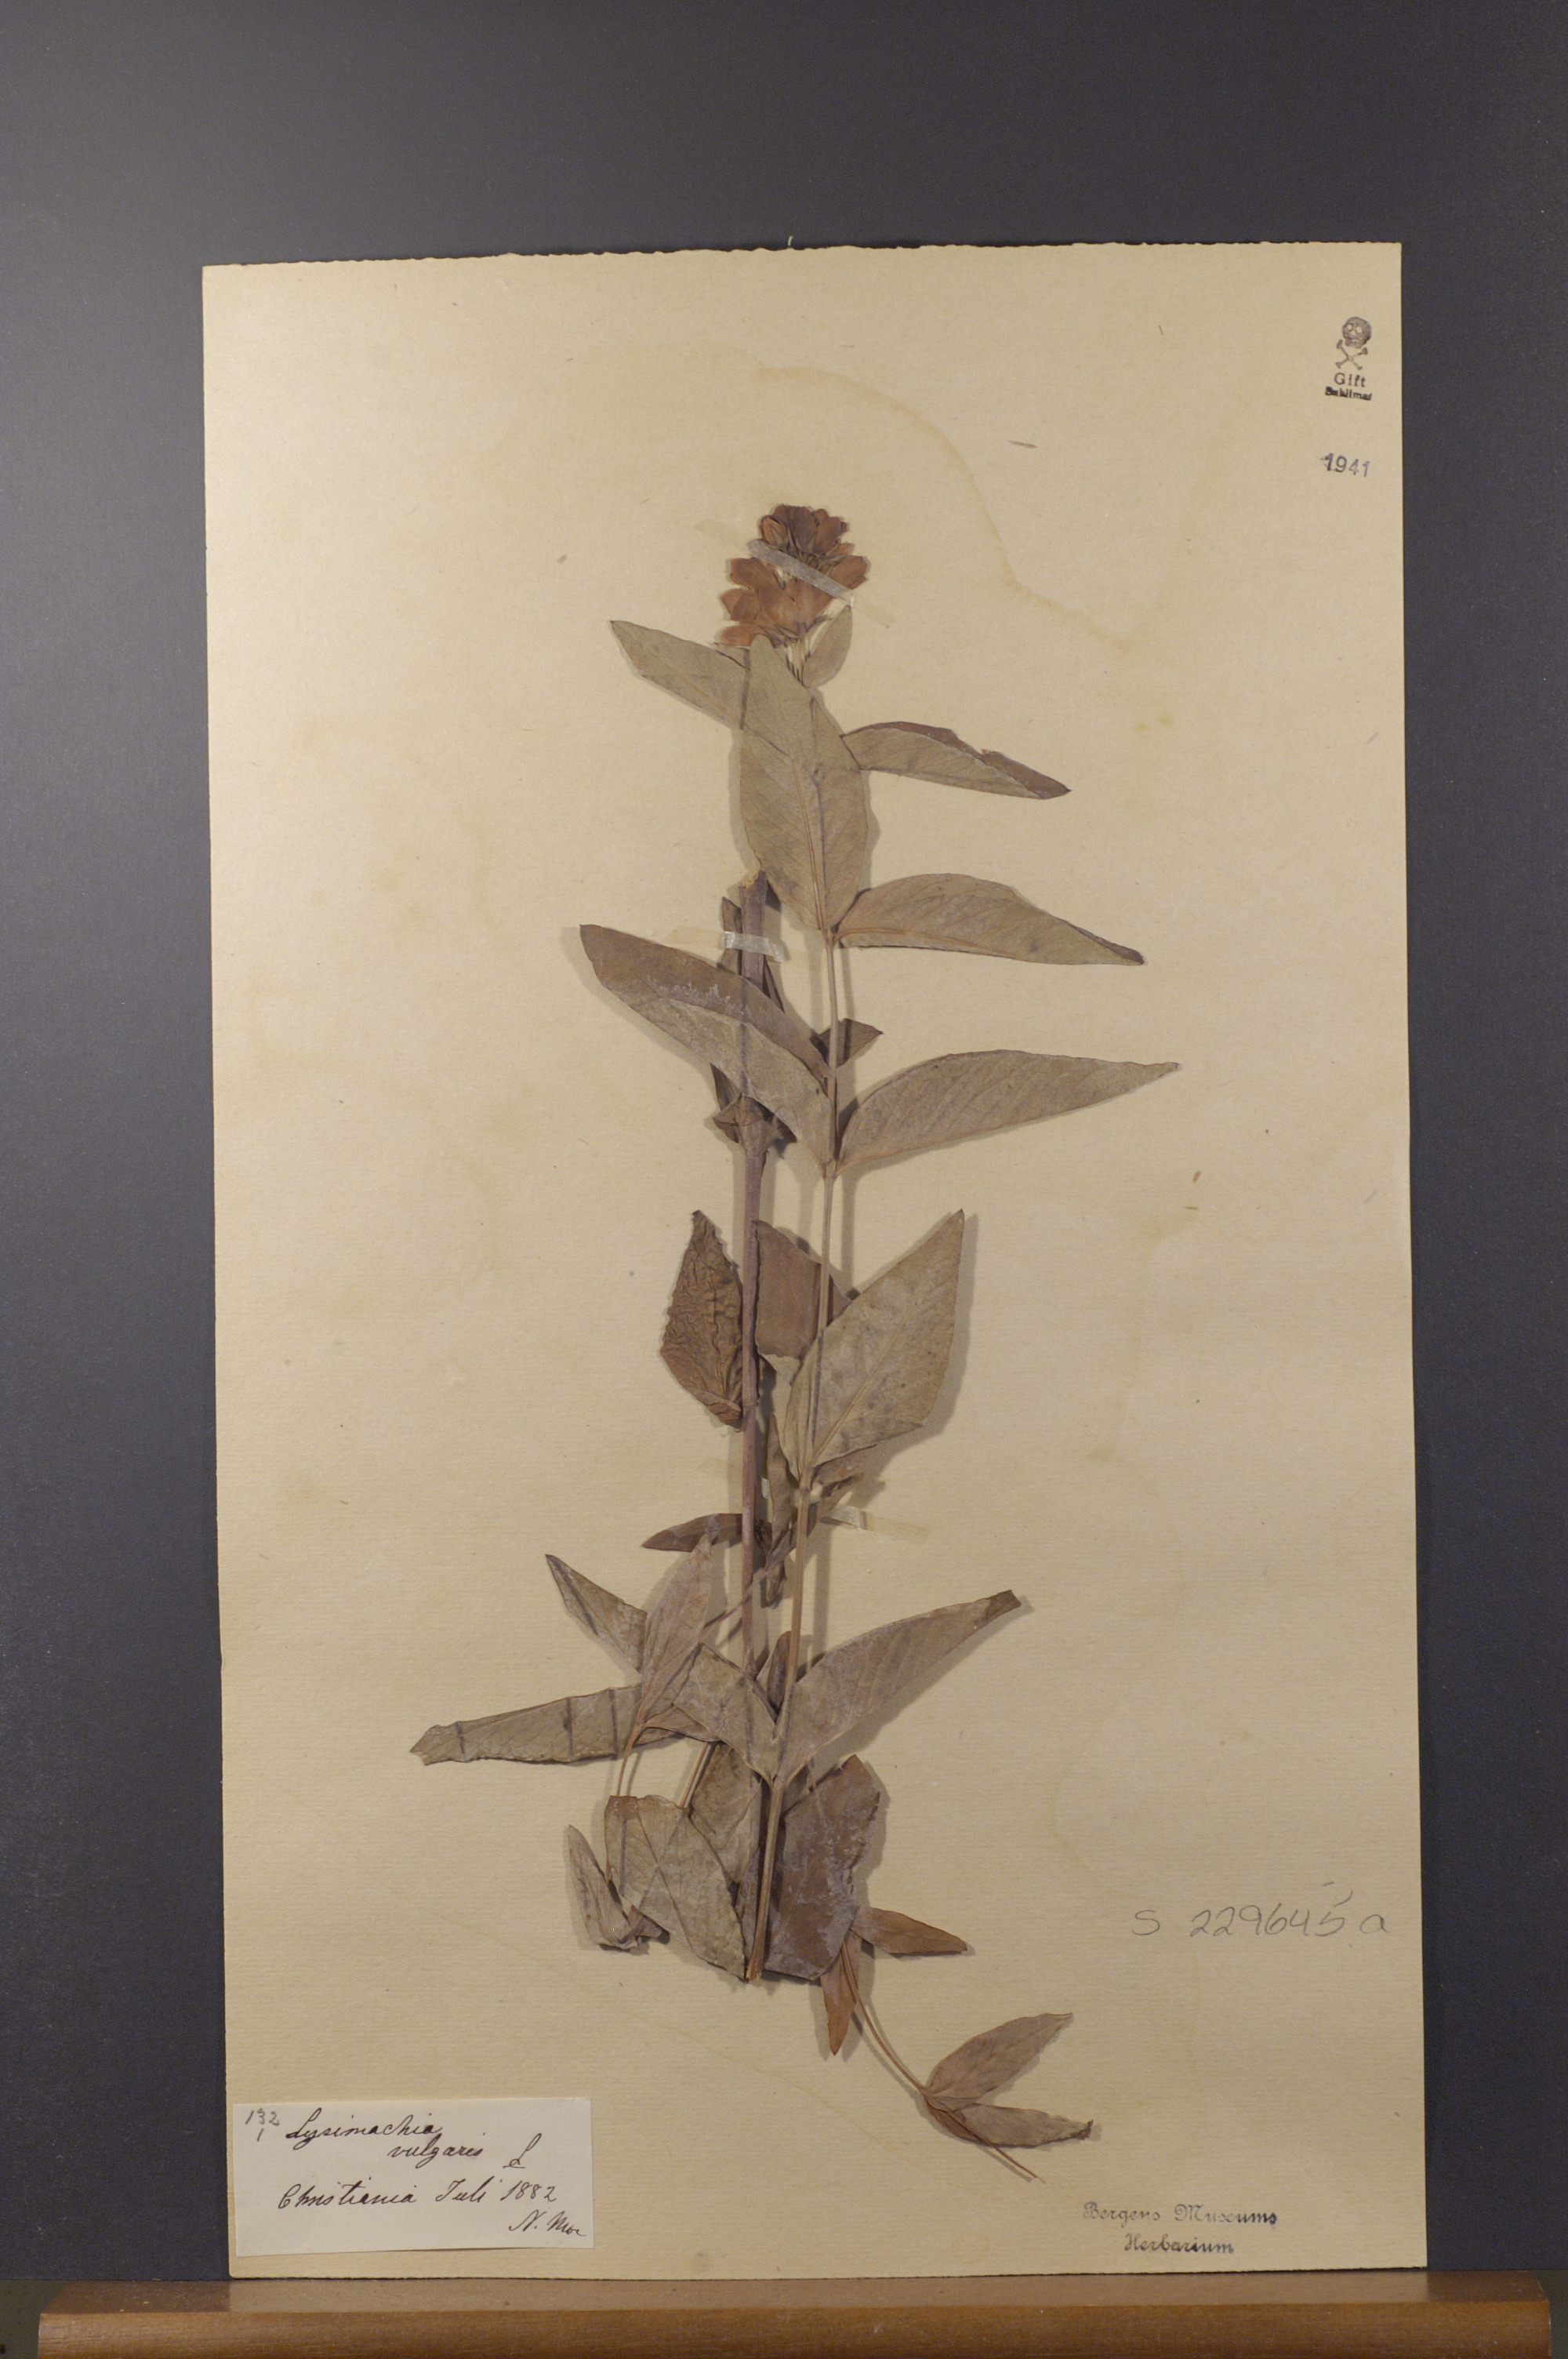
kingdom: Plantae
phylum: Tracheophyta
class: Magnoliopsida
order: Ericales
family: Primulaceae
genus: Lysimachia
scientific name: Lysimachia vulgaris
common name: Yellow loosestrife
